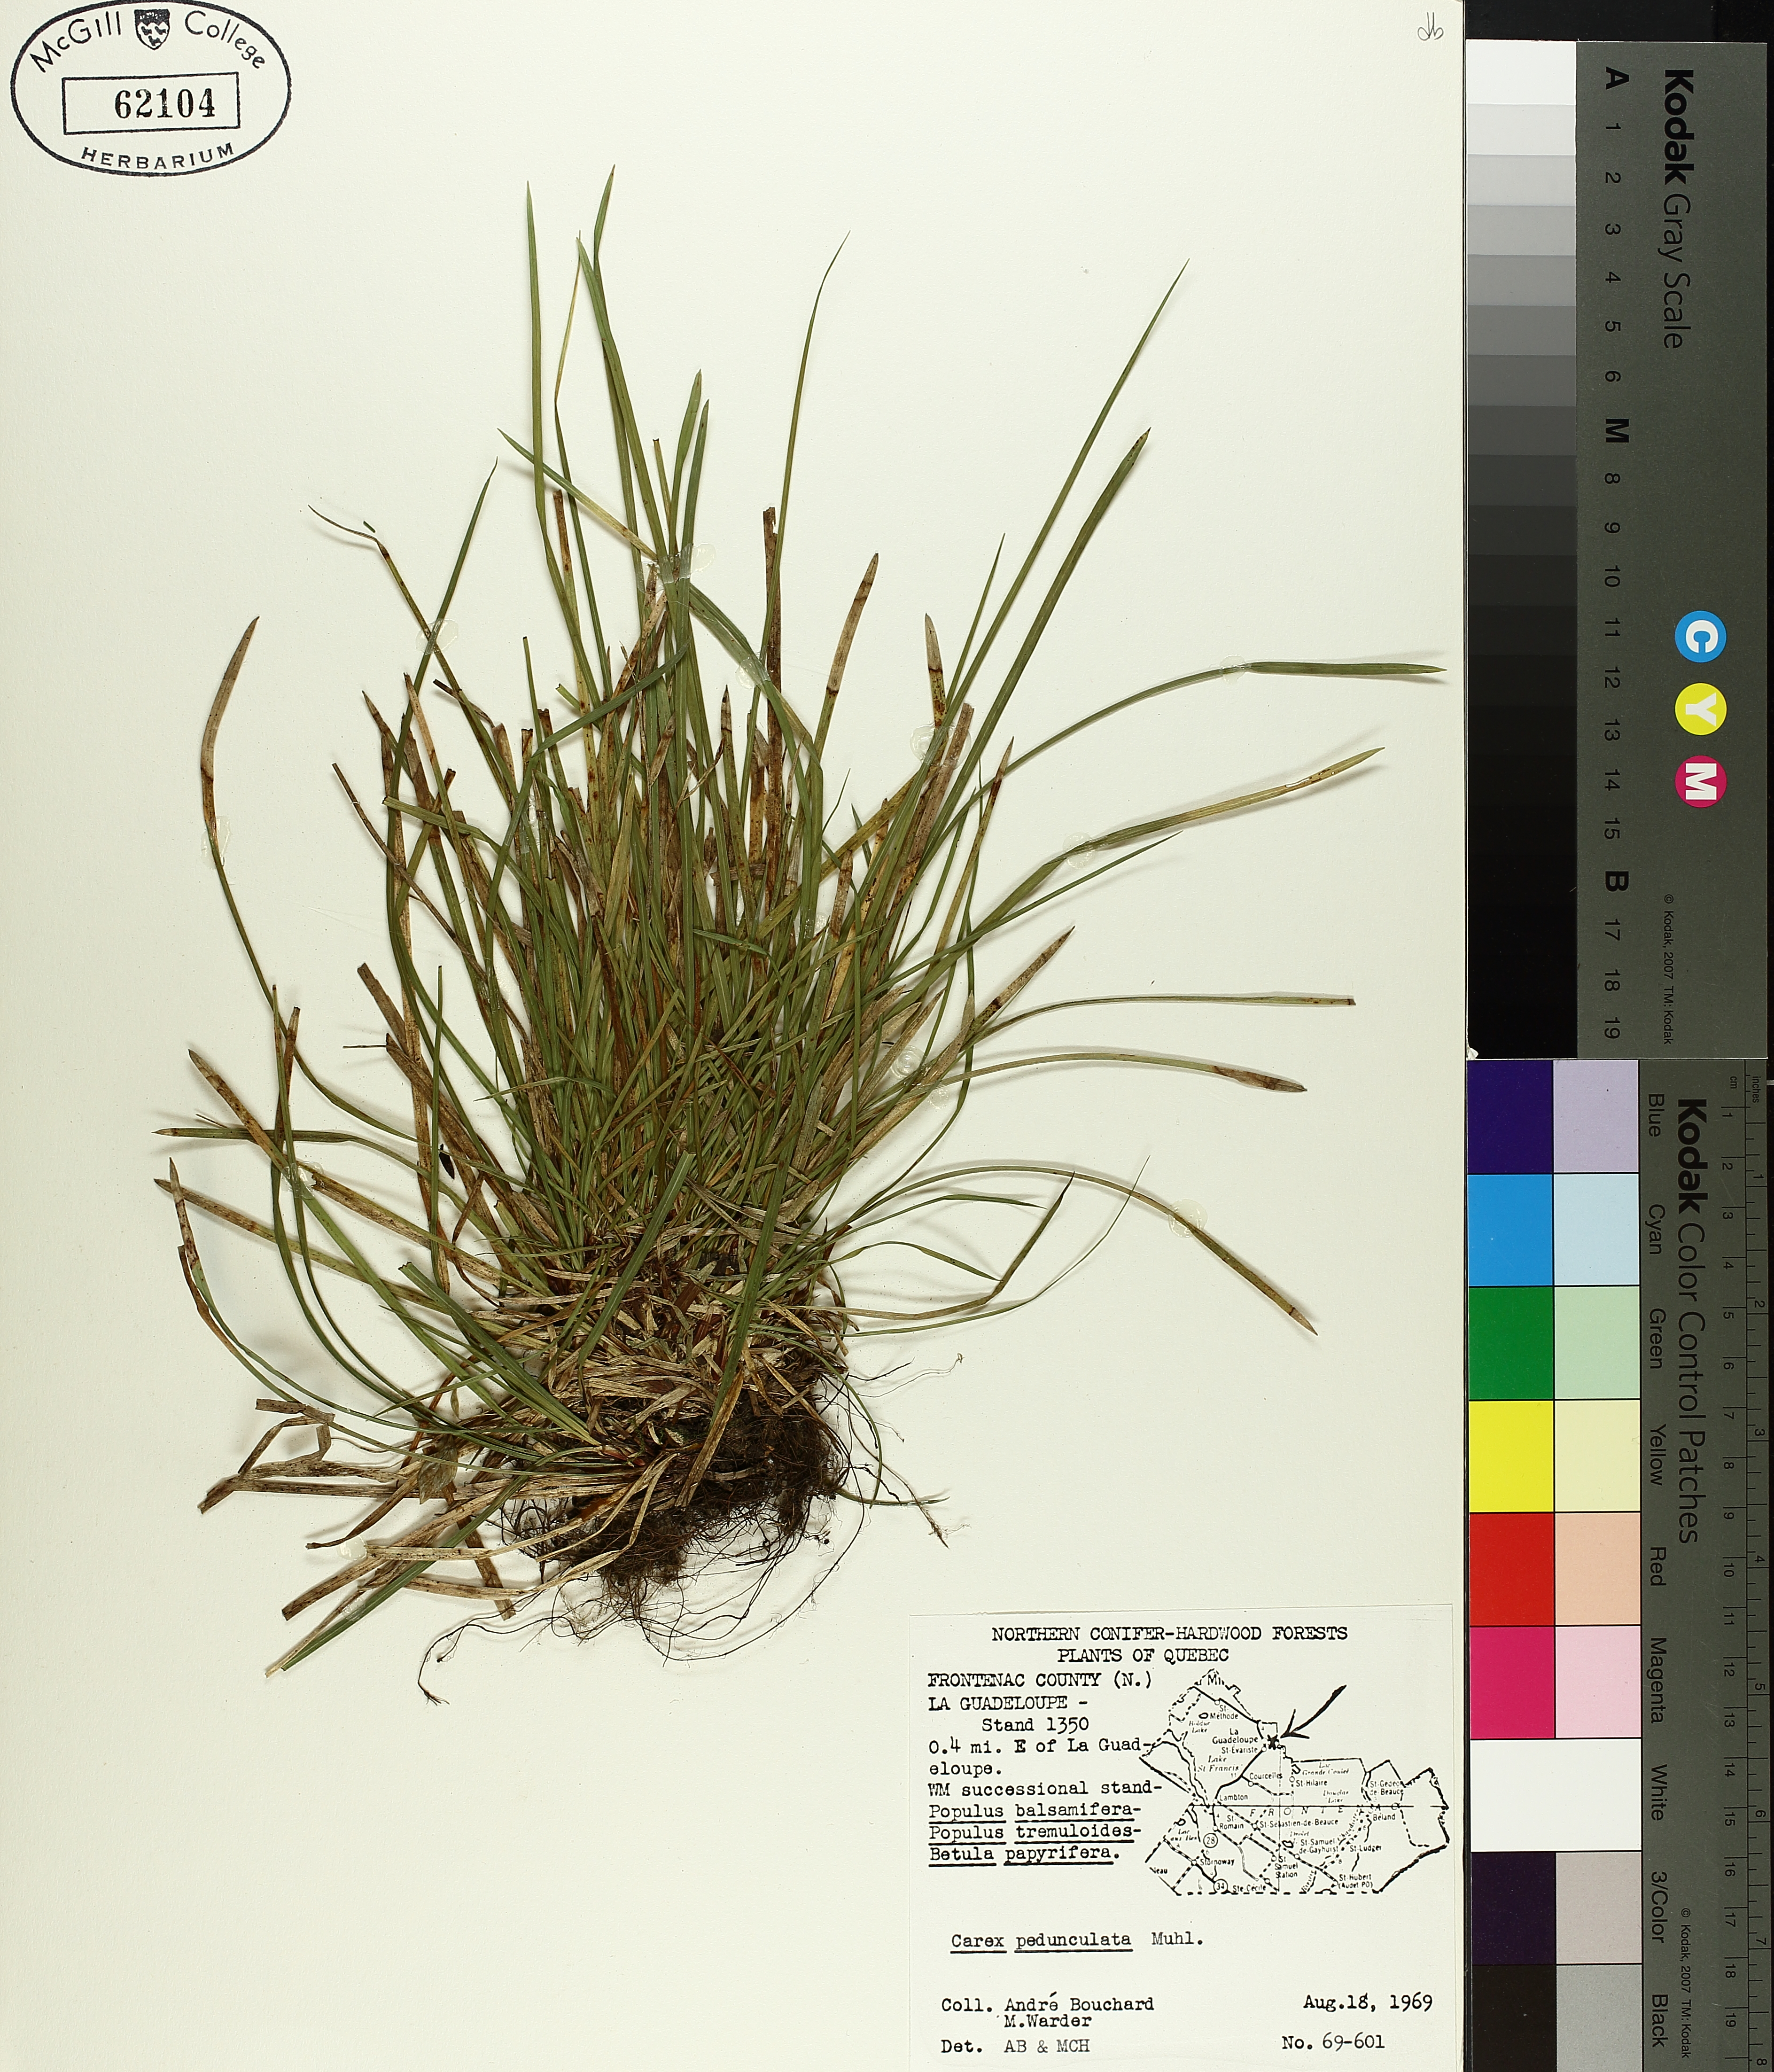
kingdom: Plantae
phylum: Tracheophyta
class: Liliopsida
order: Poales
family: Cyperaceae
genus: Carex
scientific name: Carex pedunculata
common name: Pedunculate sedge
